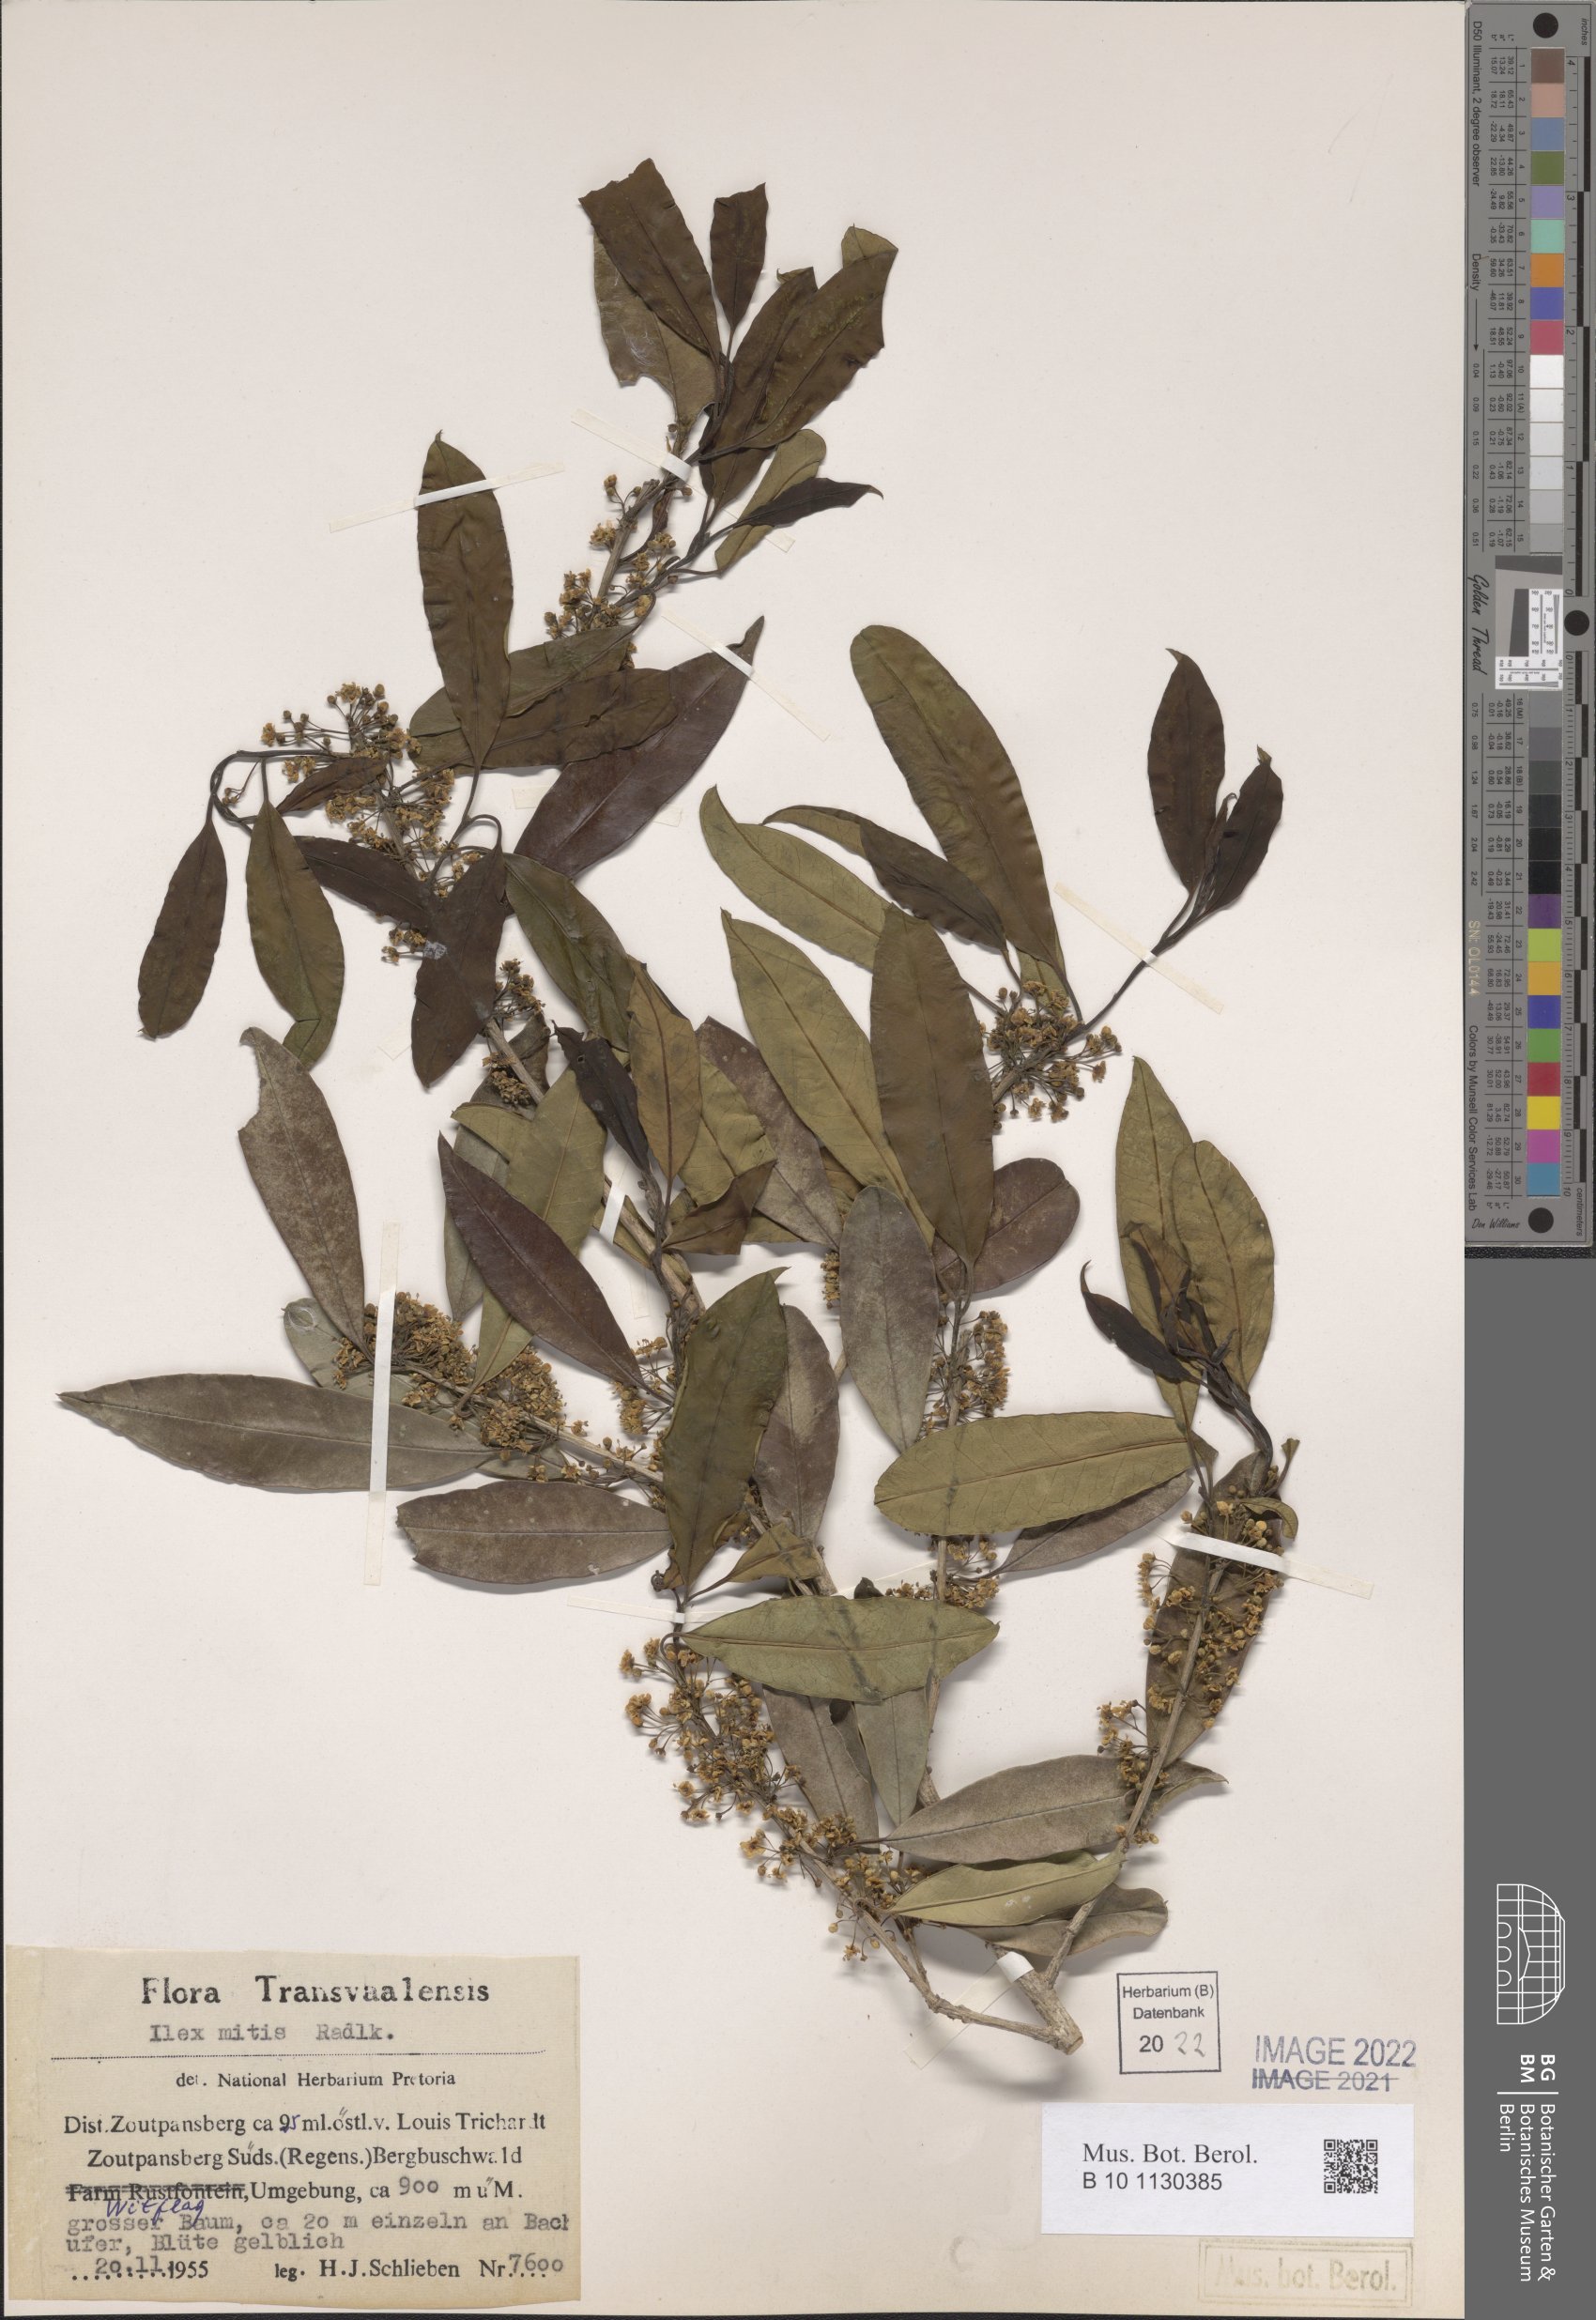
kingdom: Plantae
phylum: Tracheophyta
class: Magnoliopsida
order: Aquifoliales
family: Aquifoliaceae
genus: Ilex
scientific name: Ilex mitis
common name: African holly
